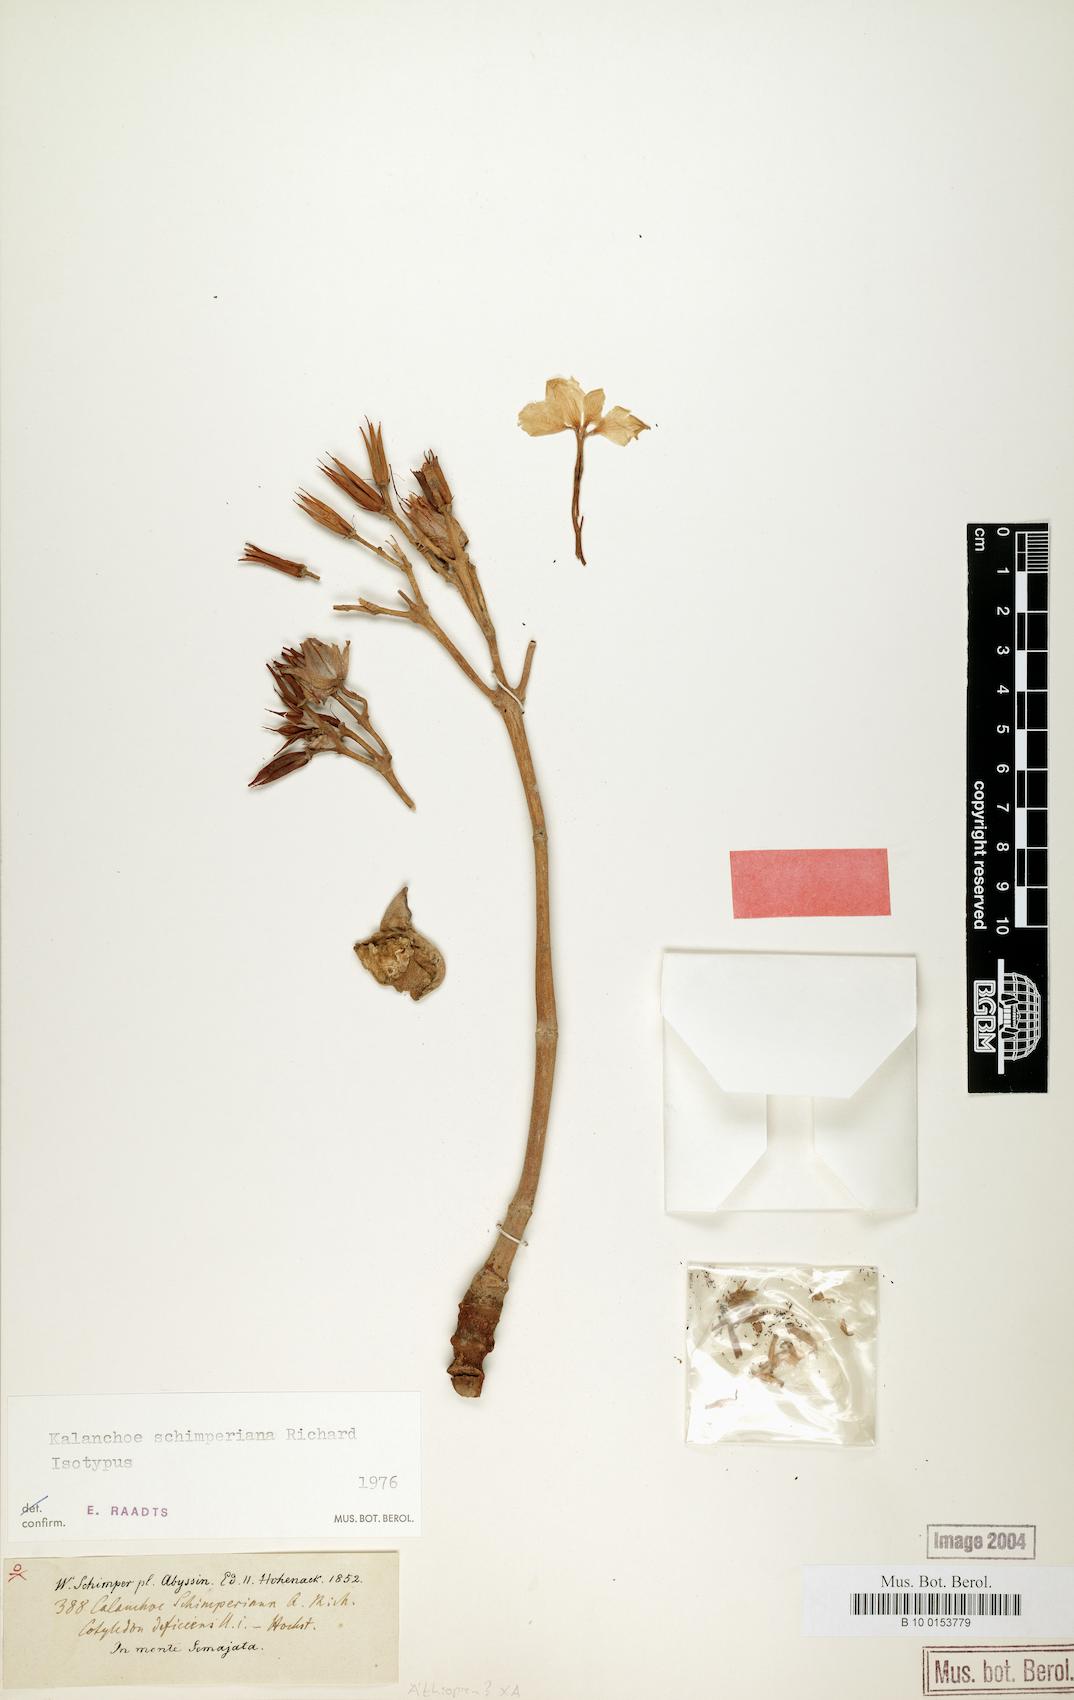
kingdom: Plantae
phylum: Tracheophyta
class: Magnoliopsida
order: Saxifragales
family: Crassulaceae
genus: Kalanchoe
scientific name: Kalanchoe schimperiana
